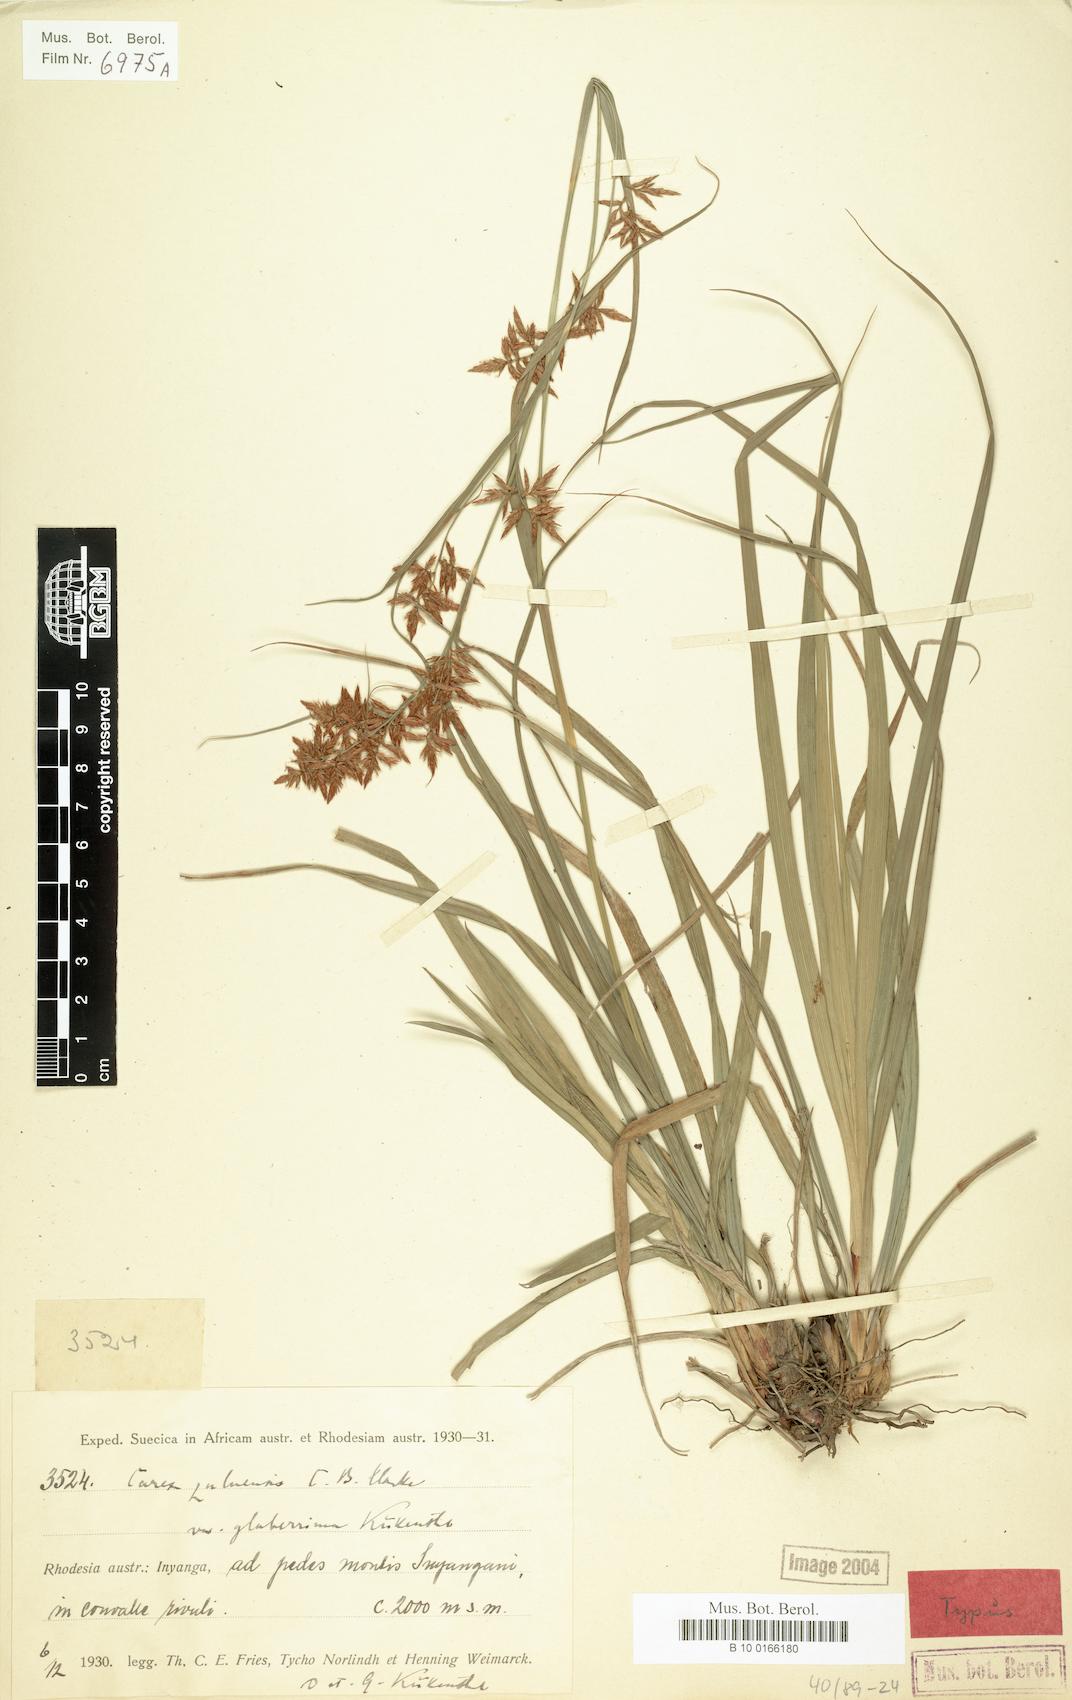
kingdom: Plantae
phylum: Tracheophyta
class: Liliopsida
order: Poales
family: Cyperaceae
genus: Carex
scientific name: Carex steudneri
